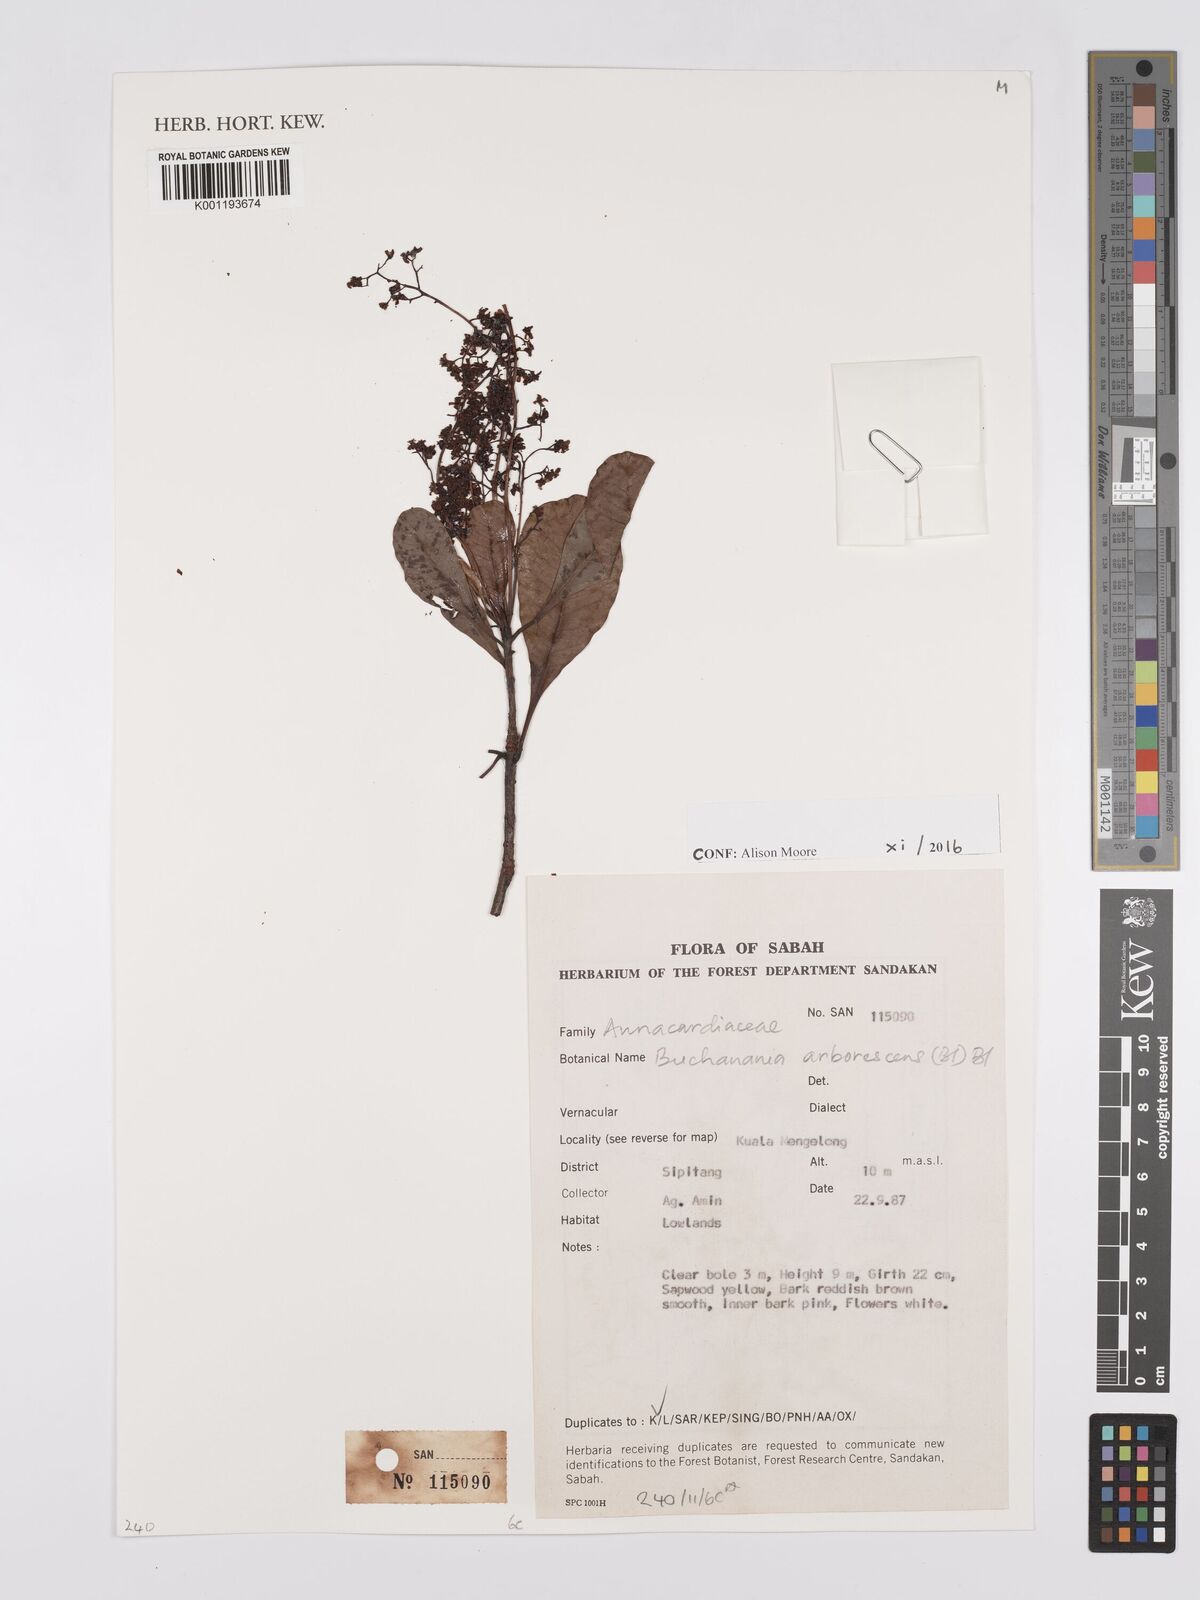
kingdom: Plantae
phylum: Tracheophyta
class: Magnoliopsida
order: Sapindales
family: Anacardiaceae
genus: Buchanania
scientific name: Buchanania arborescens
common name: Sparrow’s mango
